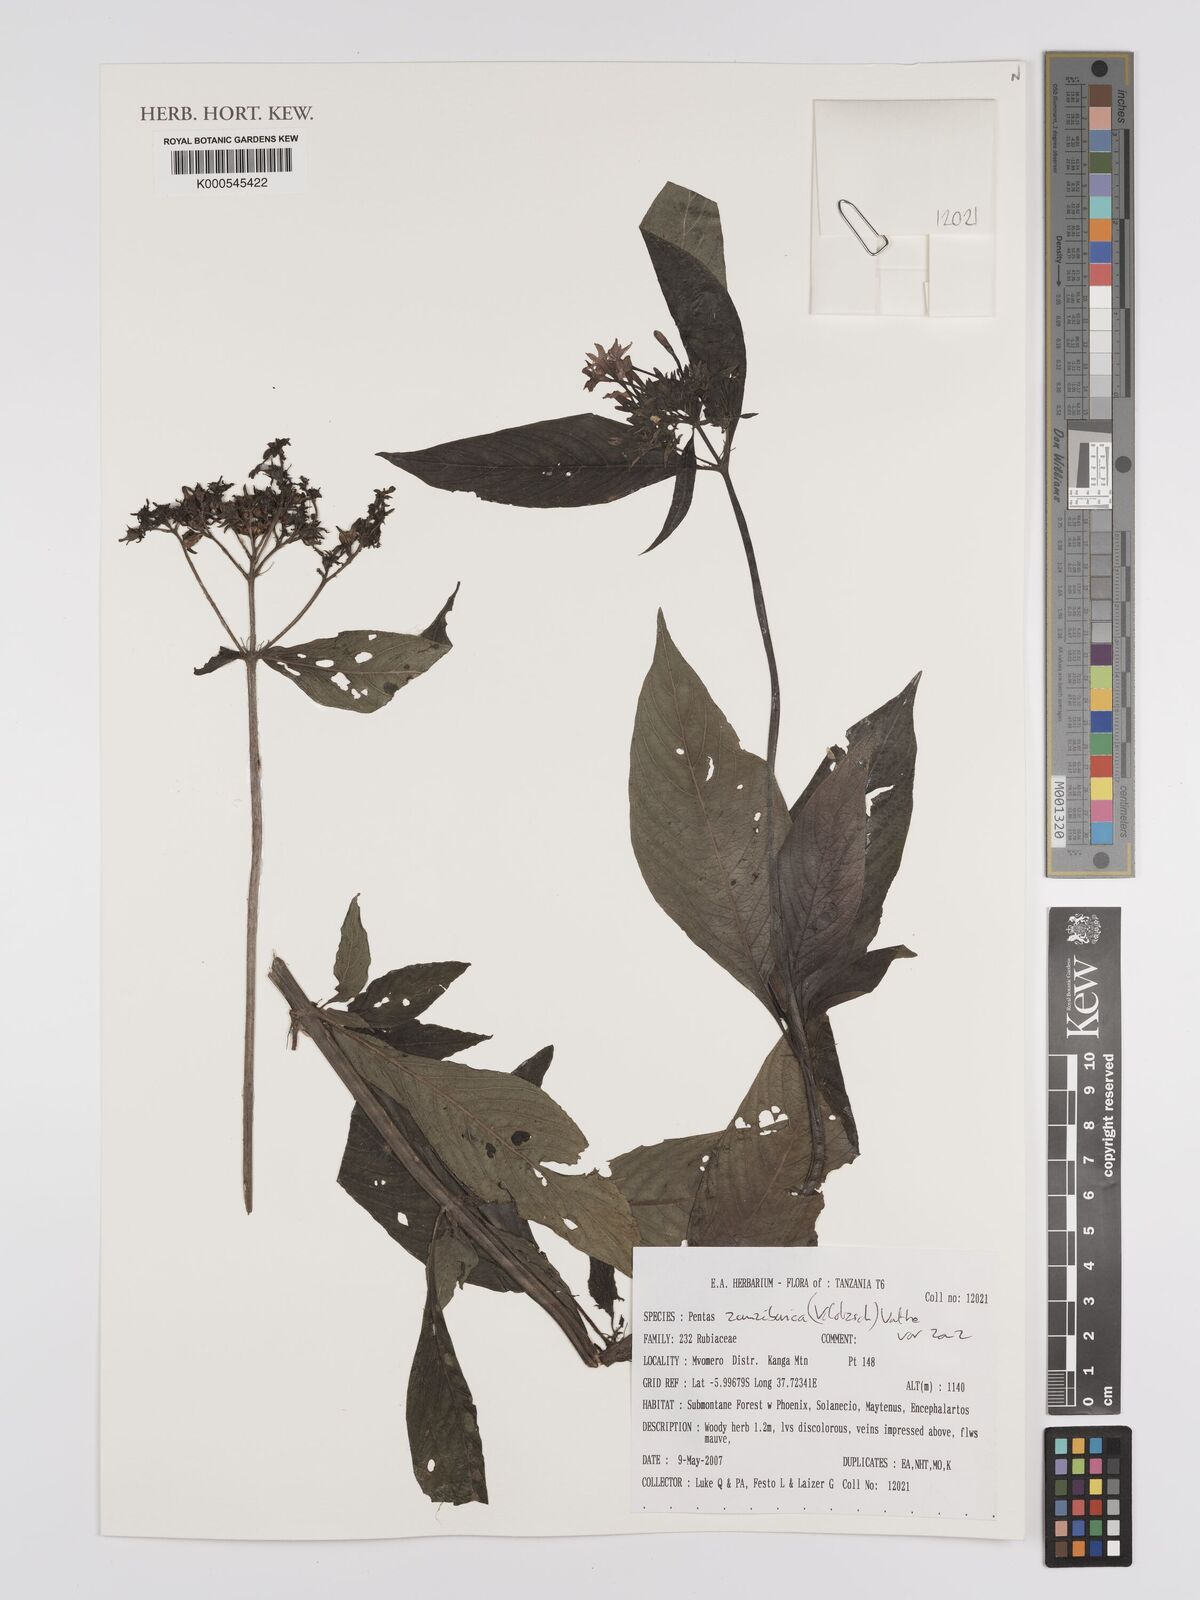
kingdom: Plantae
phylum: Tracheophyta
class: Magnoliopsida
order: Gentianales
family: Rubiaceae
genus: Pentas
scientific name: Pentas zanzibarica
